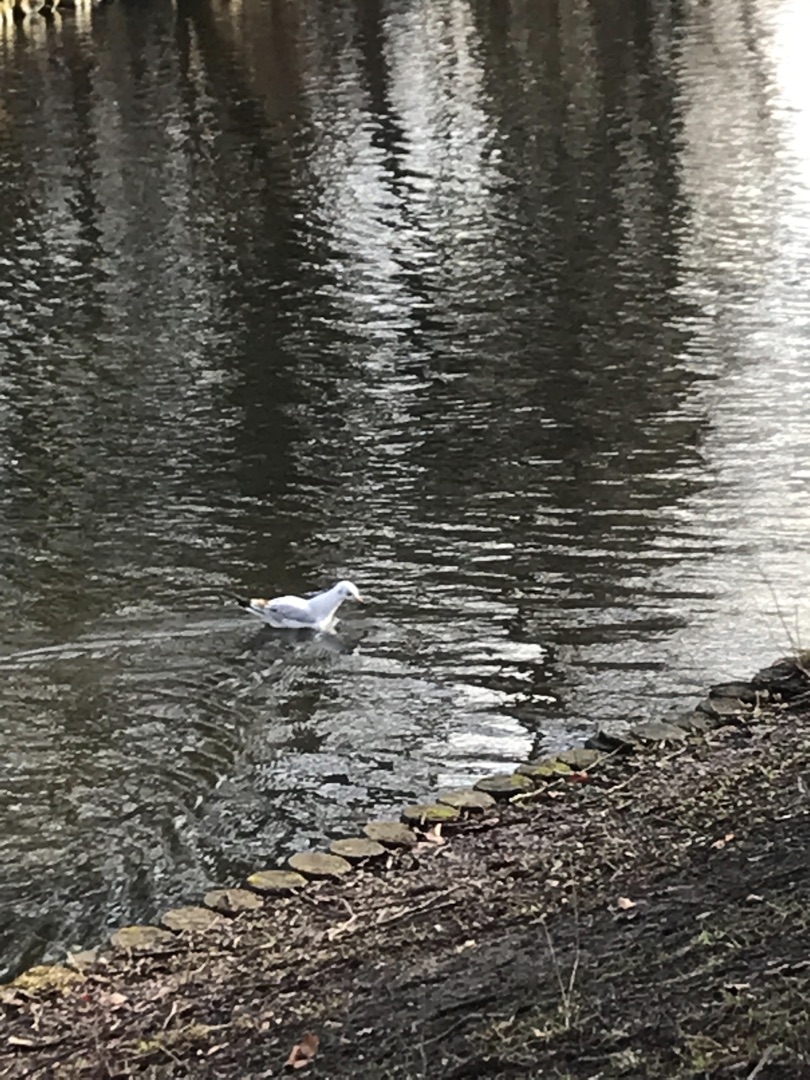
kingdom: Animalia
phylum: Chordata
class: Aves
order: Charadriiformes
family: Laridae
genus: Chroicocephalus
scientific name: Chroicocephalus ridibundus
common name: Hættemåge
